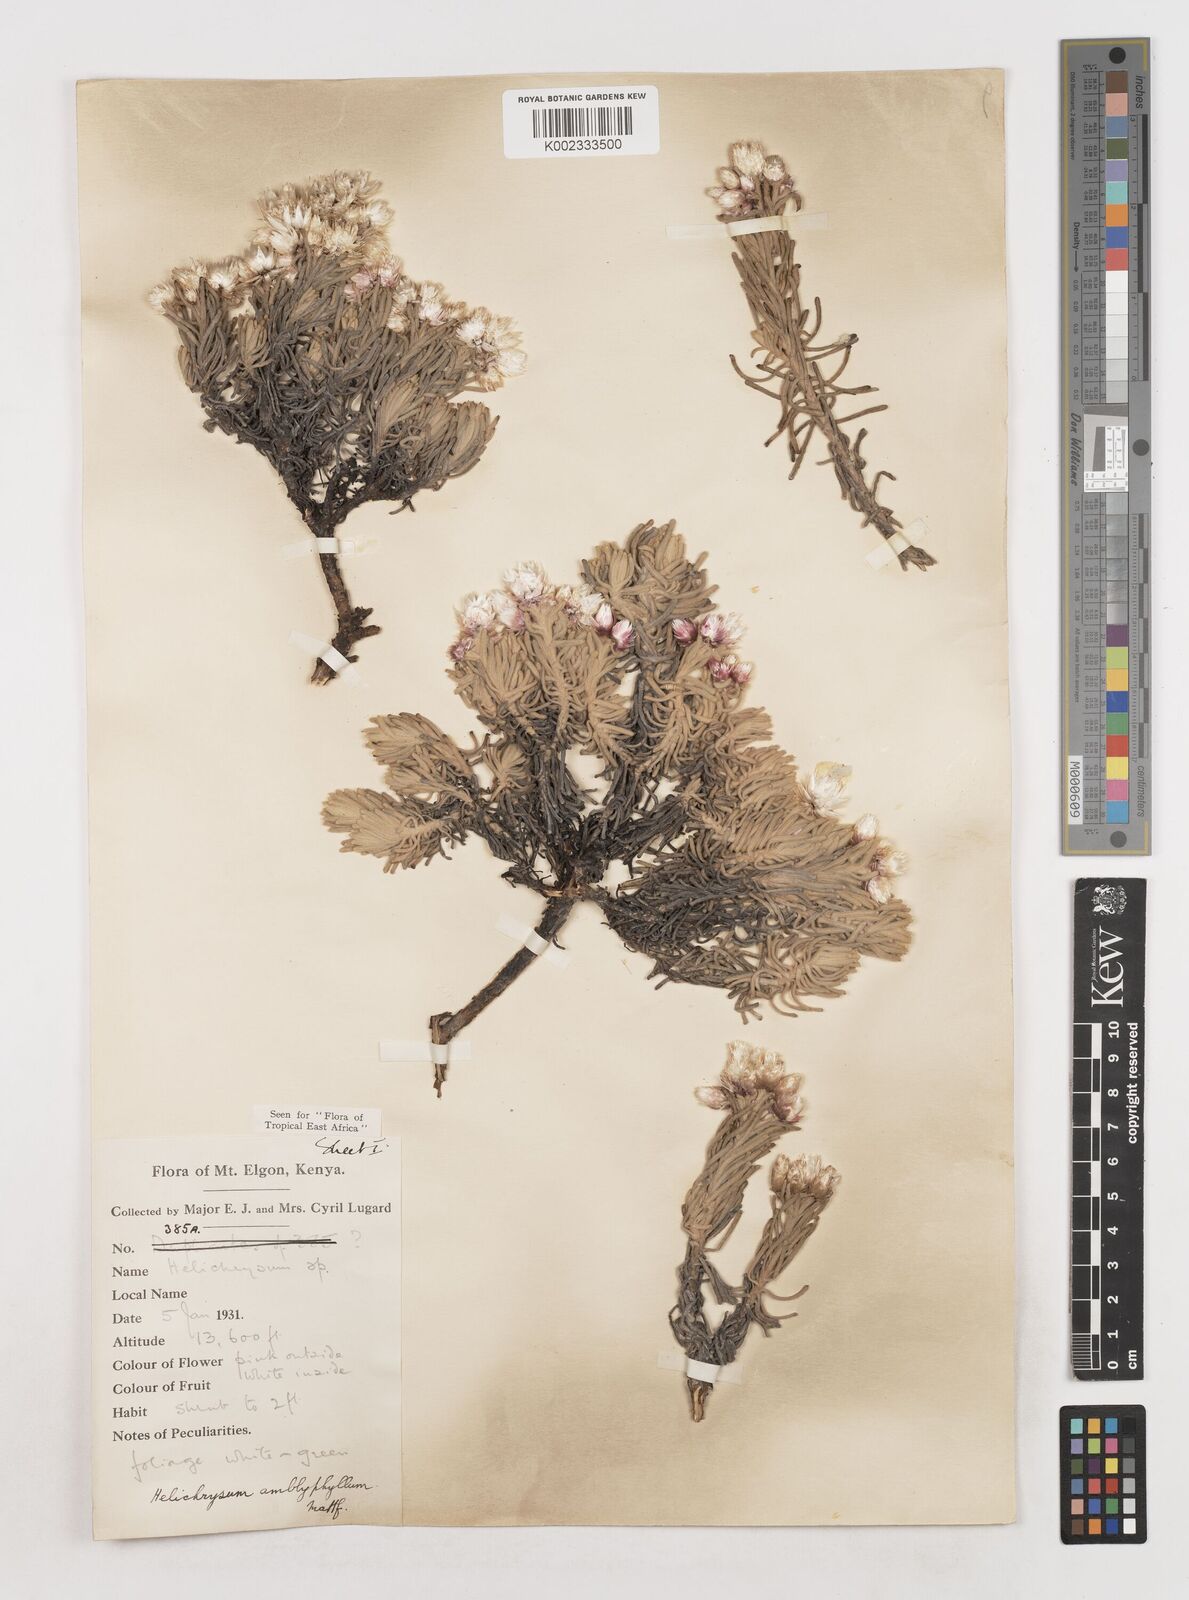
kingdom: Plantae
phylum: Tracheophyta
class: Magnoliopsida
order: Asterales
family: Asteraceae
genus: Helichrysum
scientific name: Helichrysum amblyphyllum
